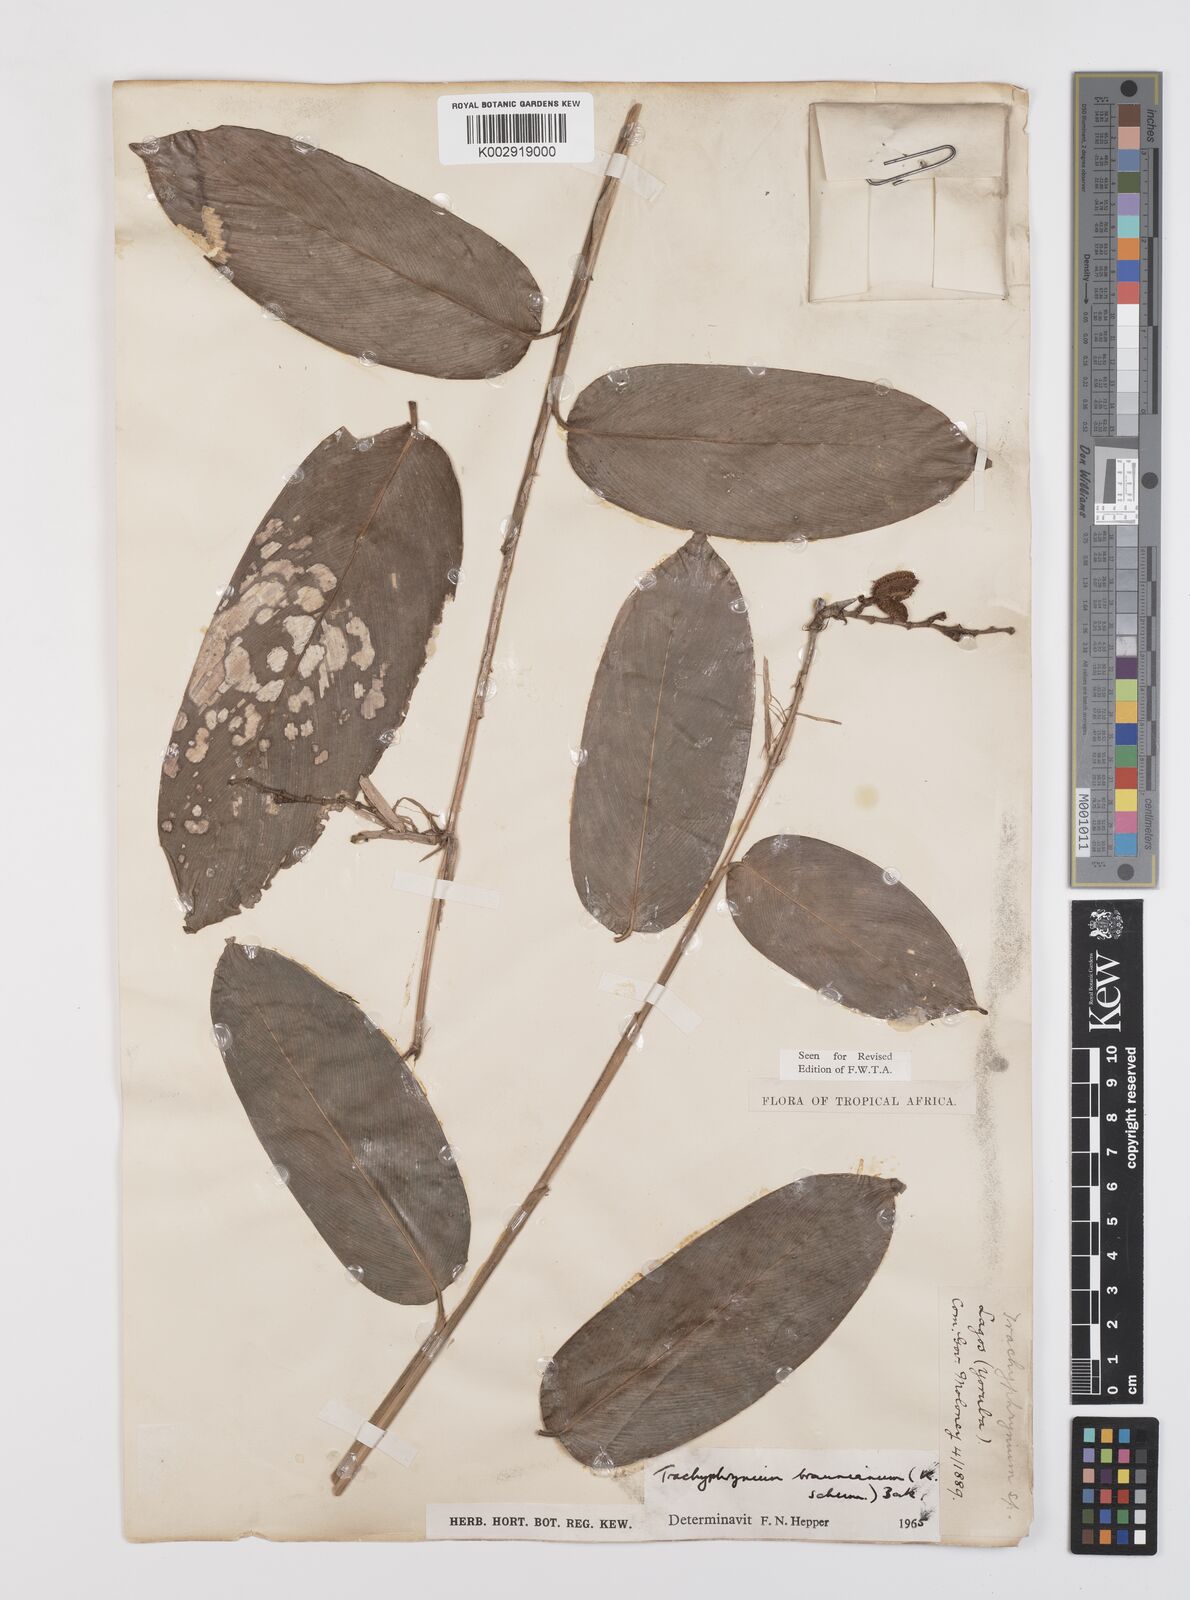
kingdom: Plantae
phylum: Tracheophyta
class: Liliopsida
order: Zingiberales
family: Marantaceae
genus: Trachyphrynium
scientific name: Trachyphrynium braunianum
